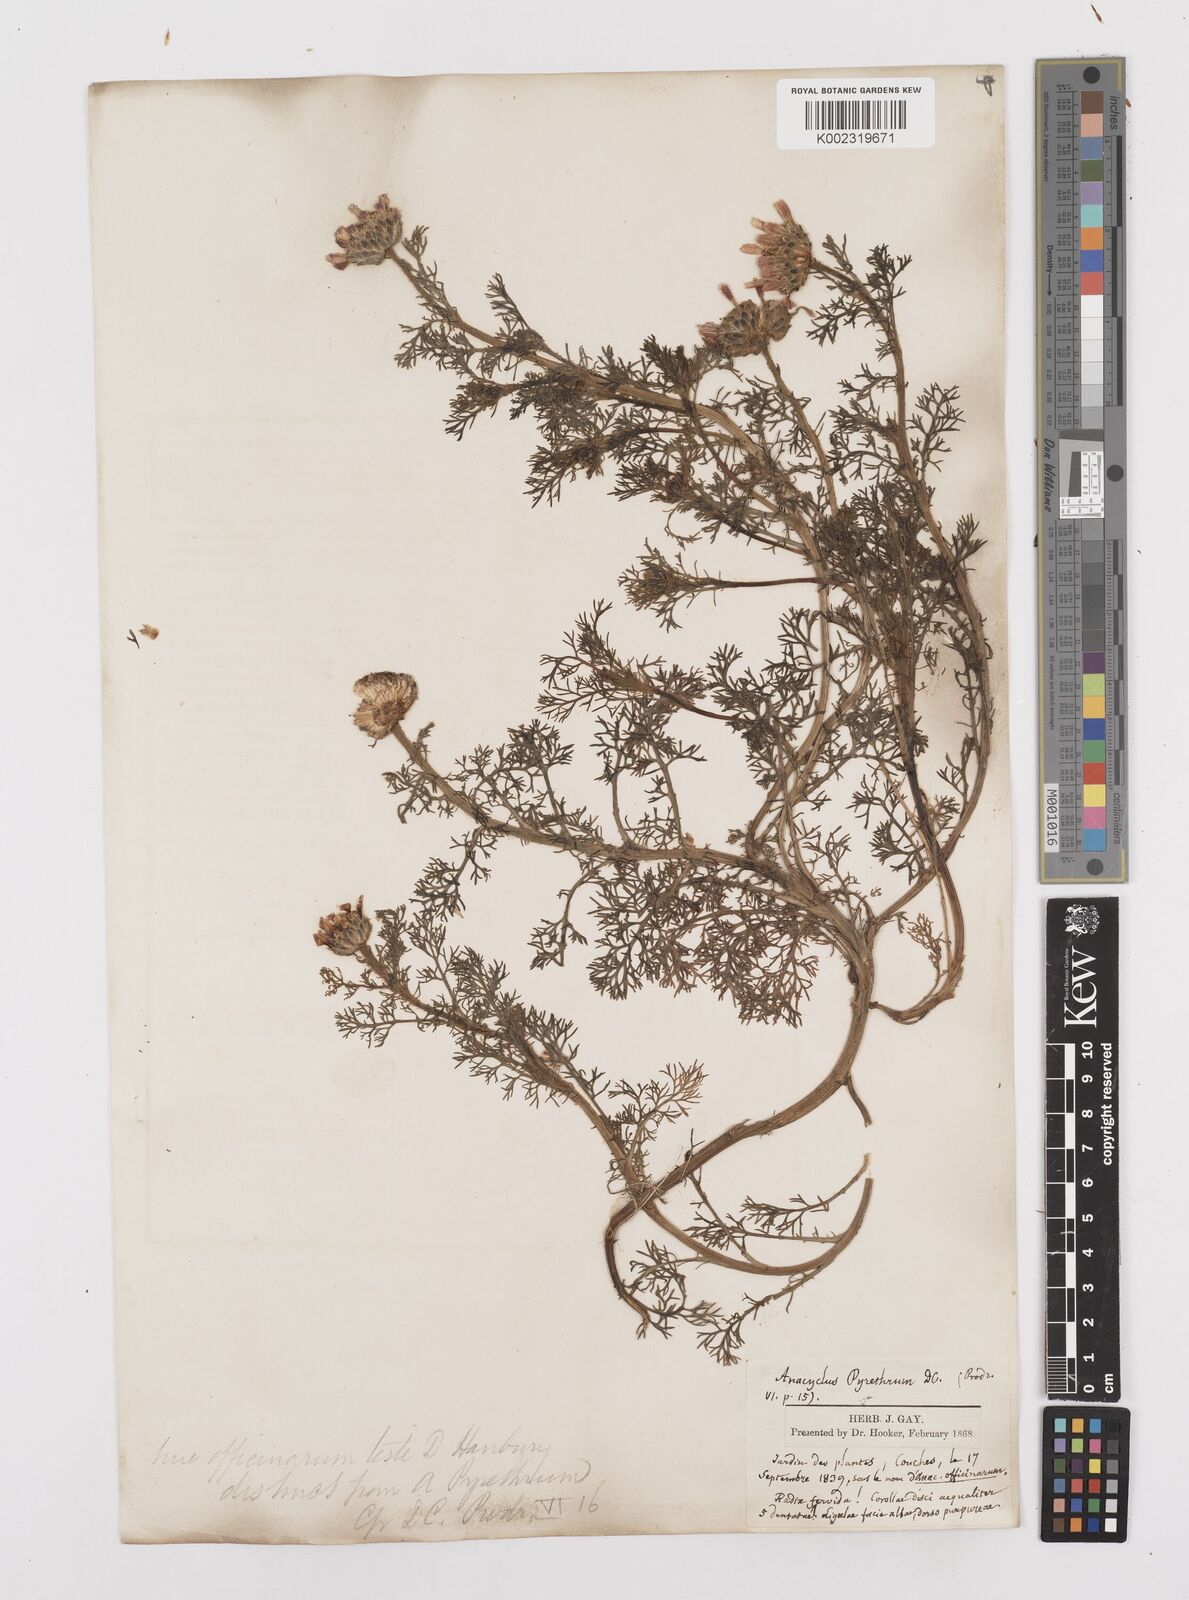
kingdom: Plantae
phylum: Tracheophyta
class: Magnoliopsida
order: Asterales
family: Asteraceae
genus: Anacyclus
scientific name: Anacyclus pyrethrum
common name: Mt. atlas daisy
